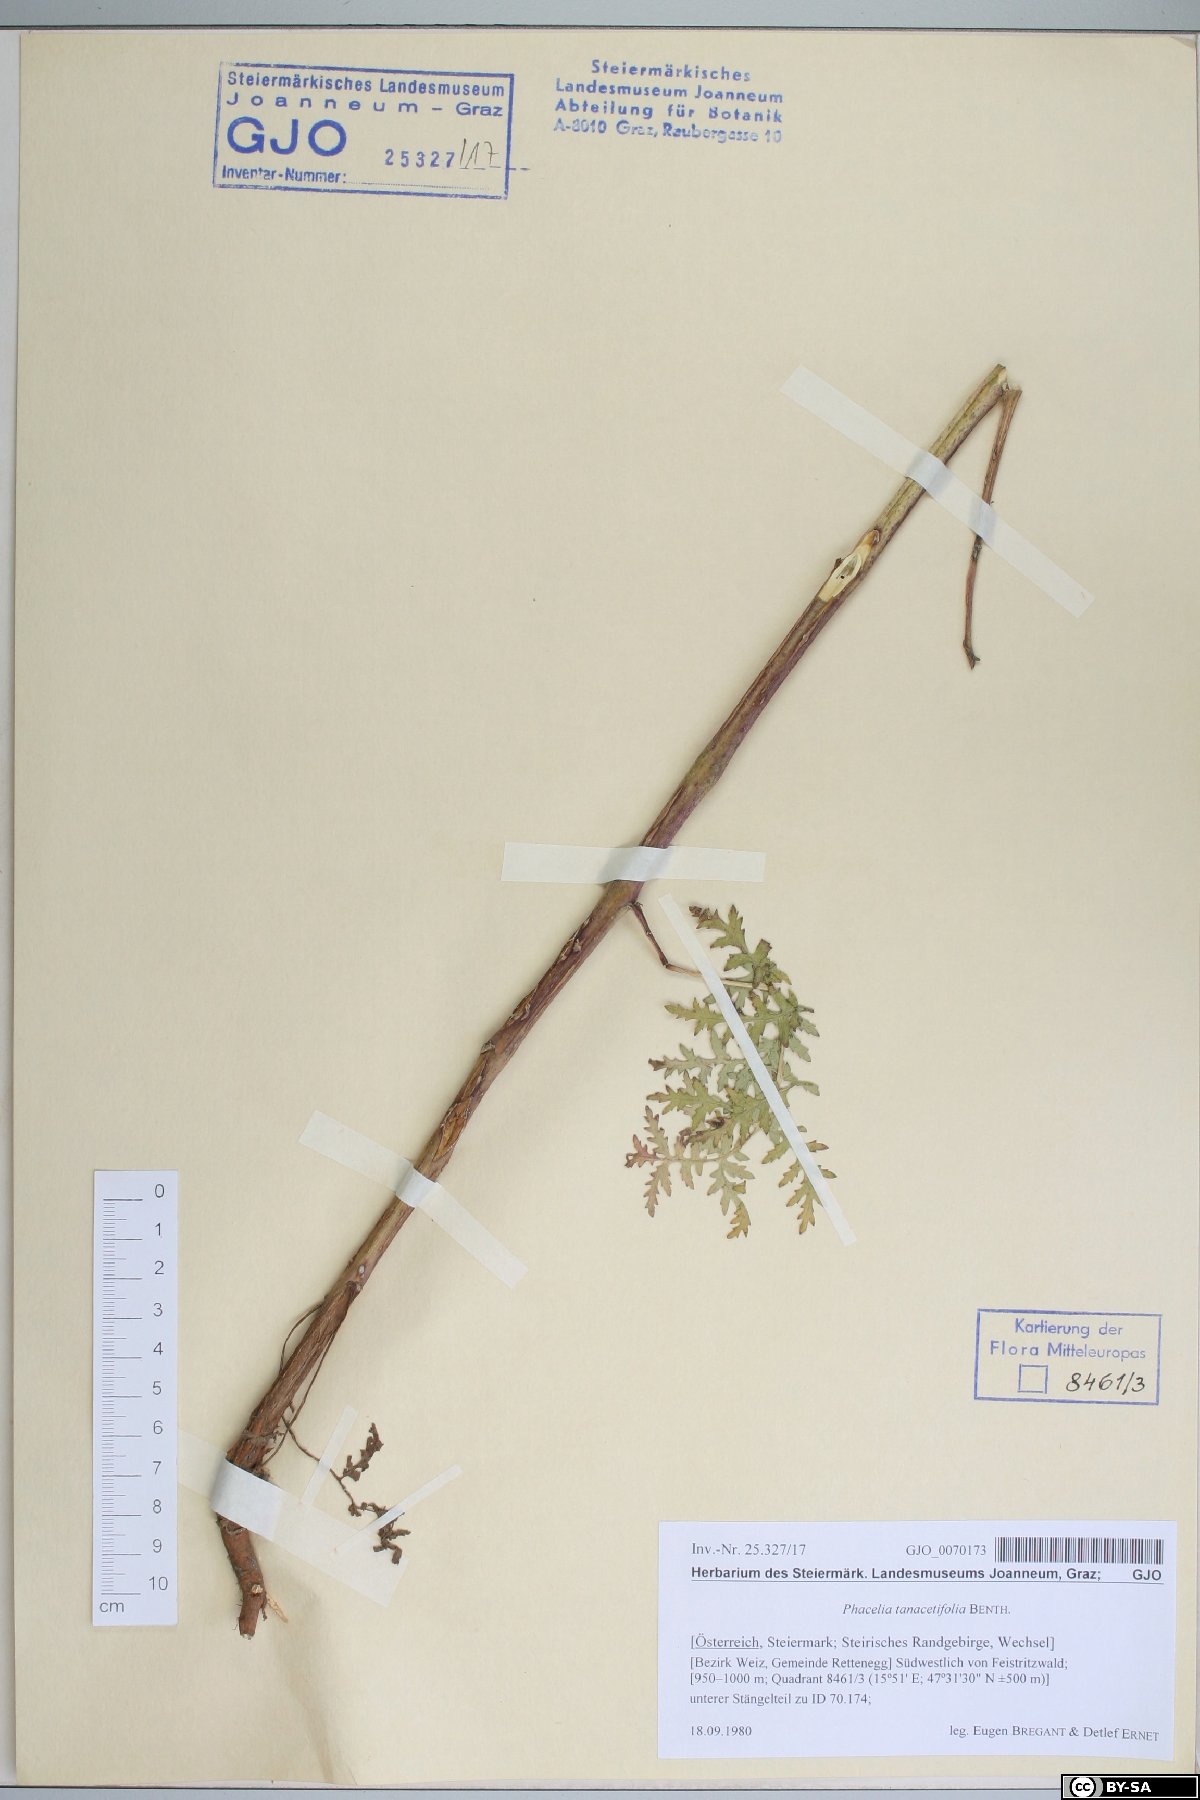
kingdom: Plantae
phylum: Tracheophyta
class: Magnoliopsida
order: Boraginales
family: Hydrophyllaceae
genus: Phacelia
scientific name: Phacelia tanacetifolia
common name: Phacelia
